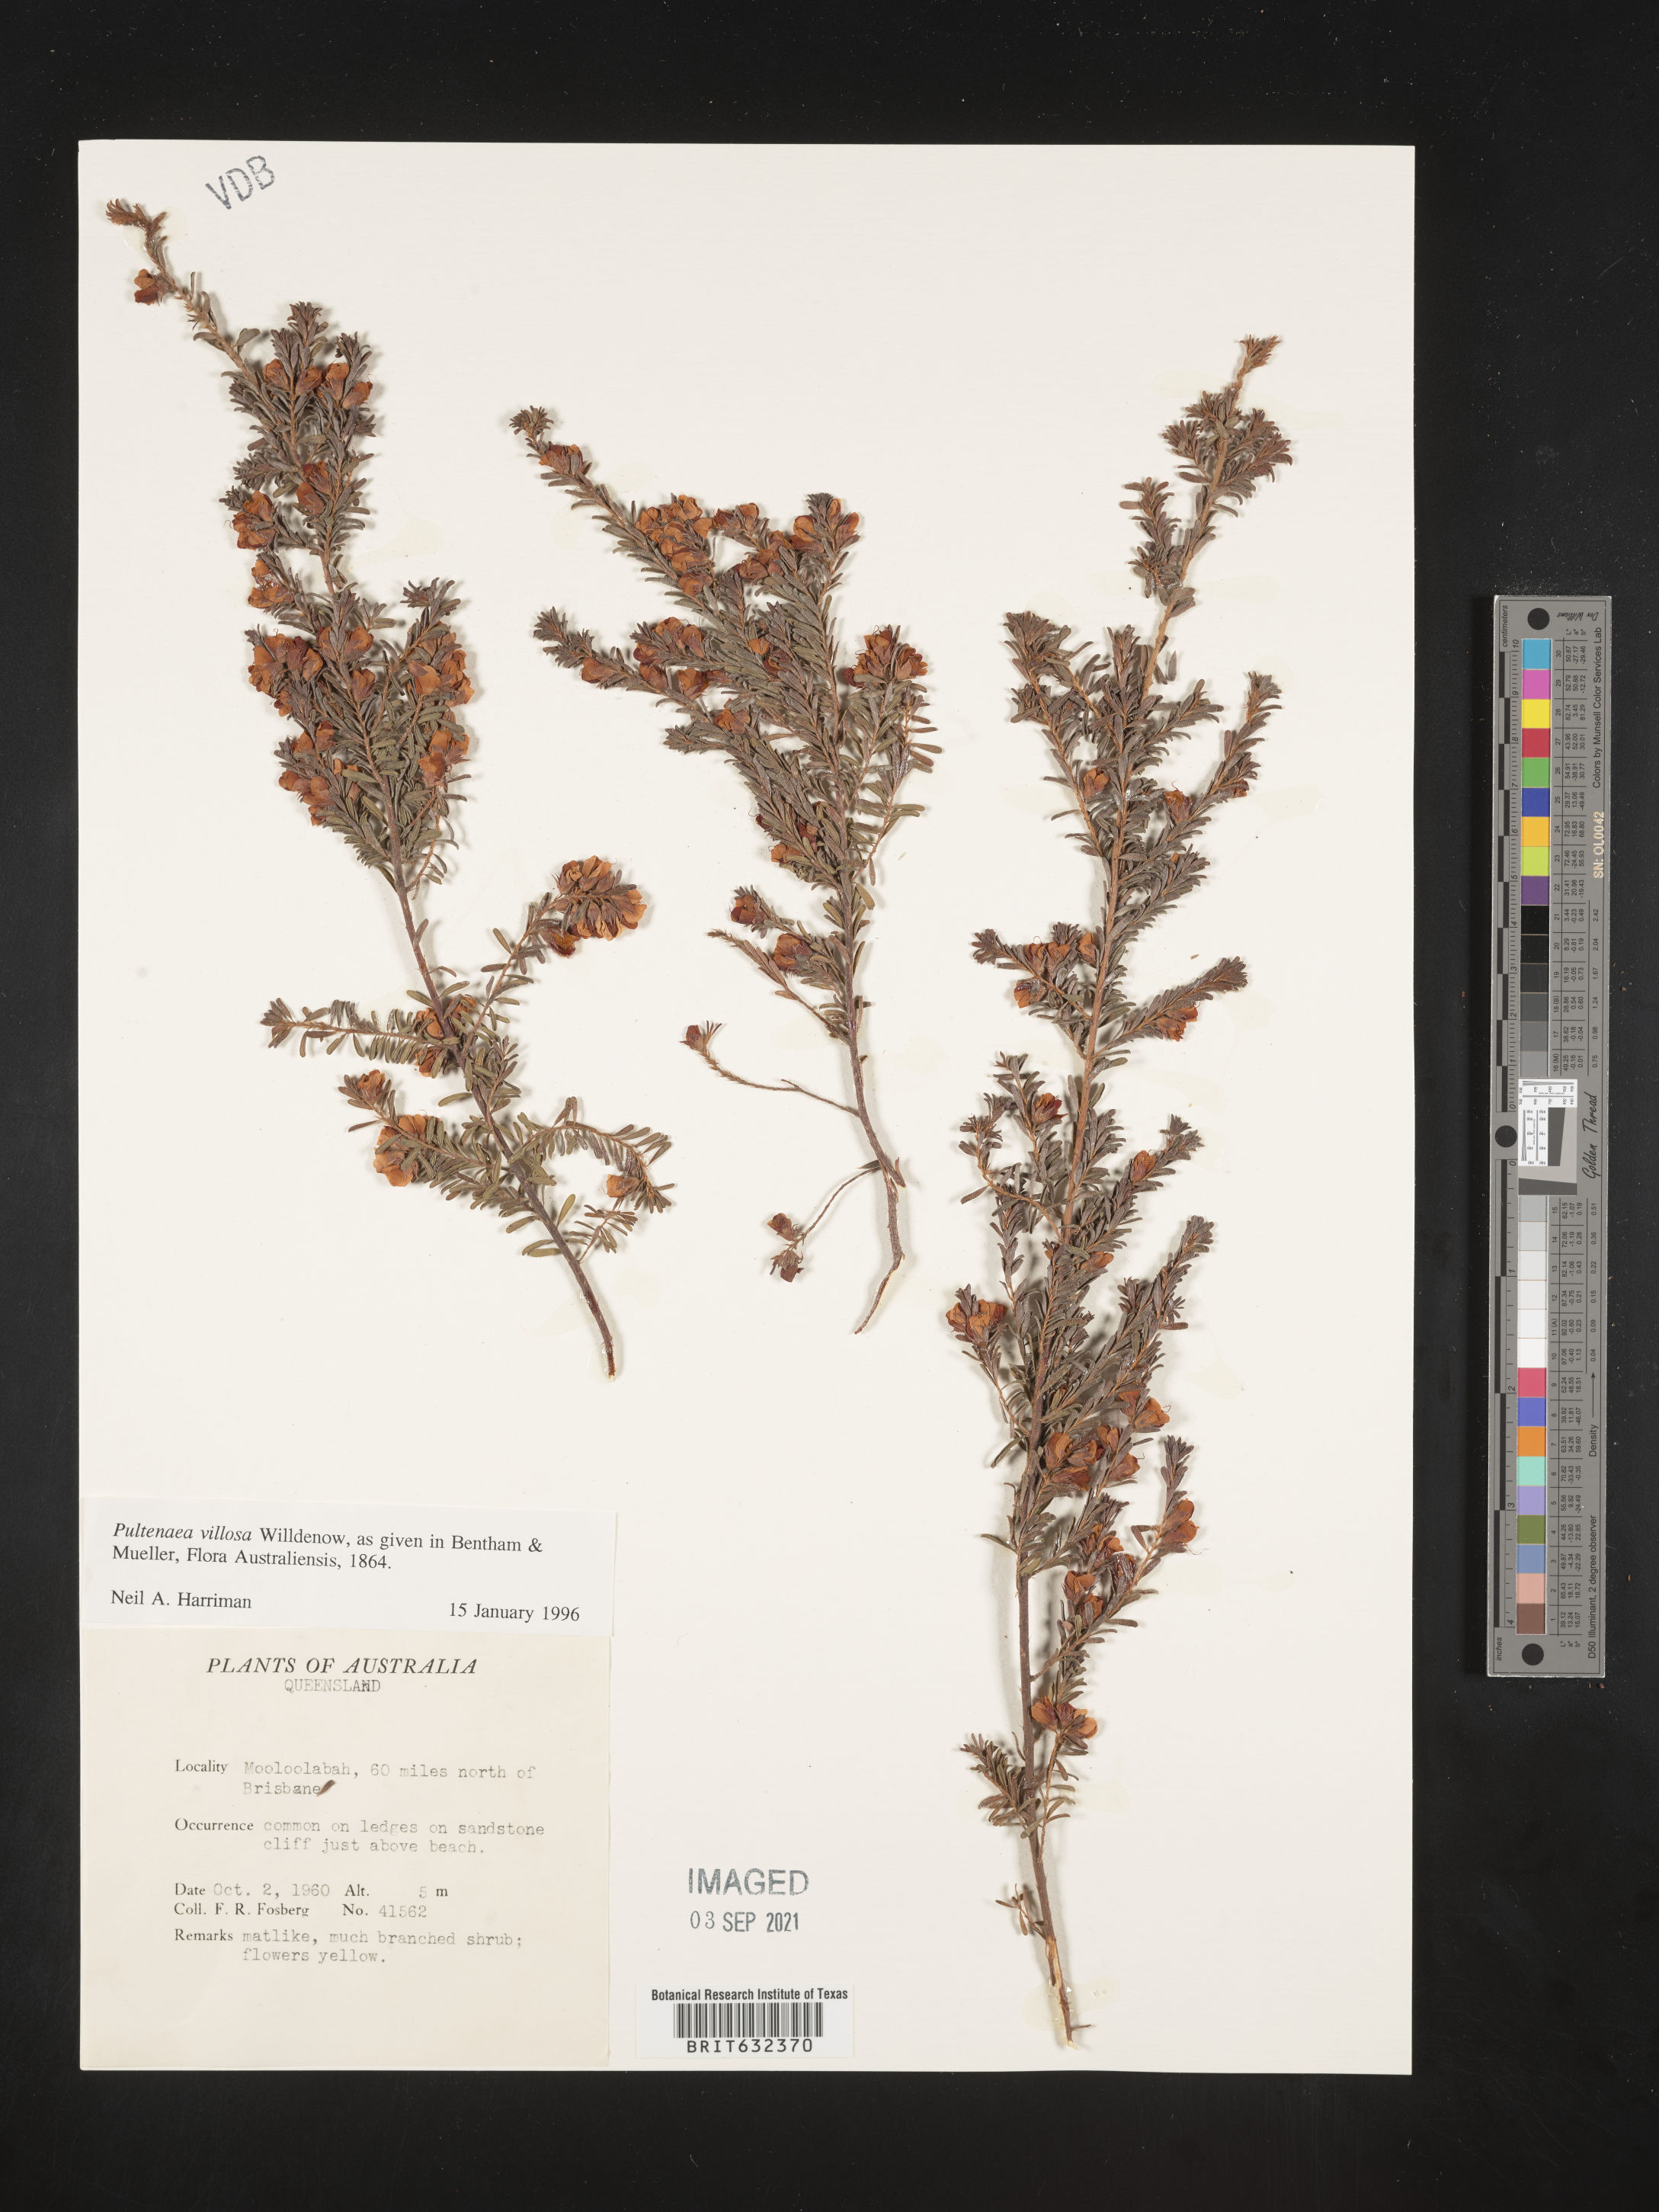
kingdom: Plantae
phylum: Tracheophyta
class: Magnoliopsida
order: Fabales
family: Fabaceae
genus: Pultenaea
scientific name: Pultenaea villosa
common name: Bronze bush-pea
